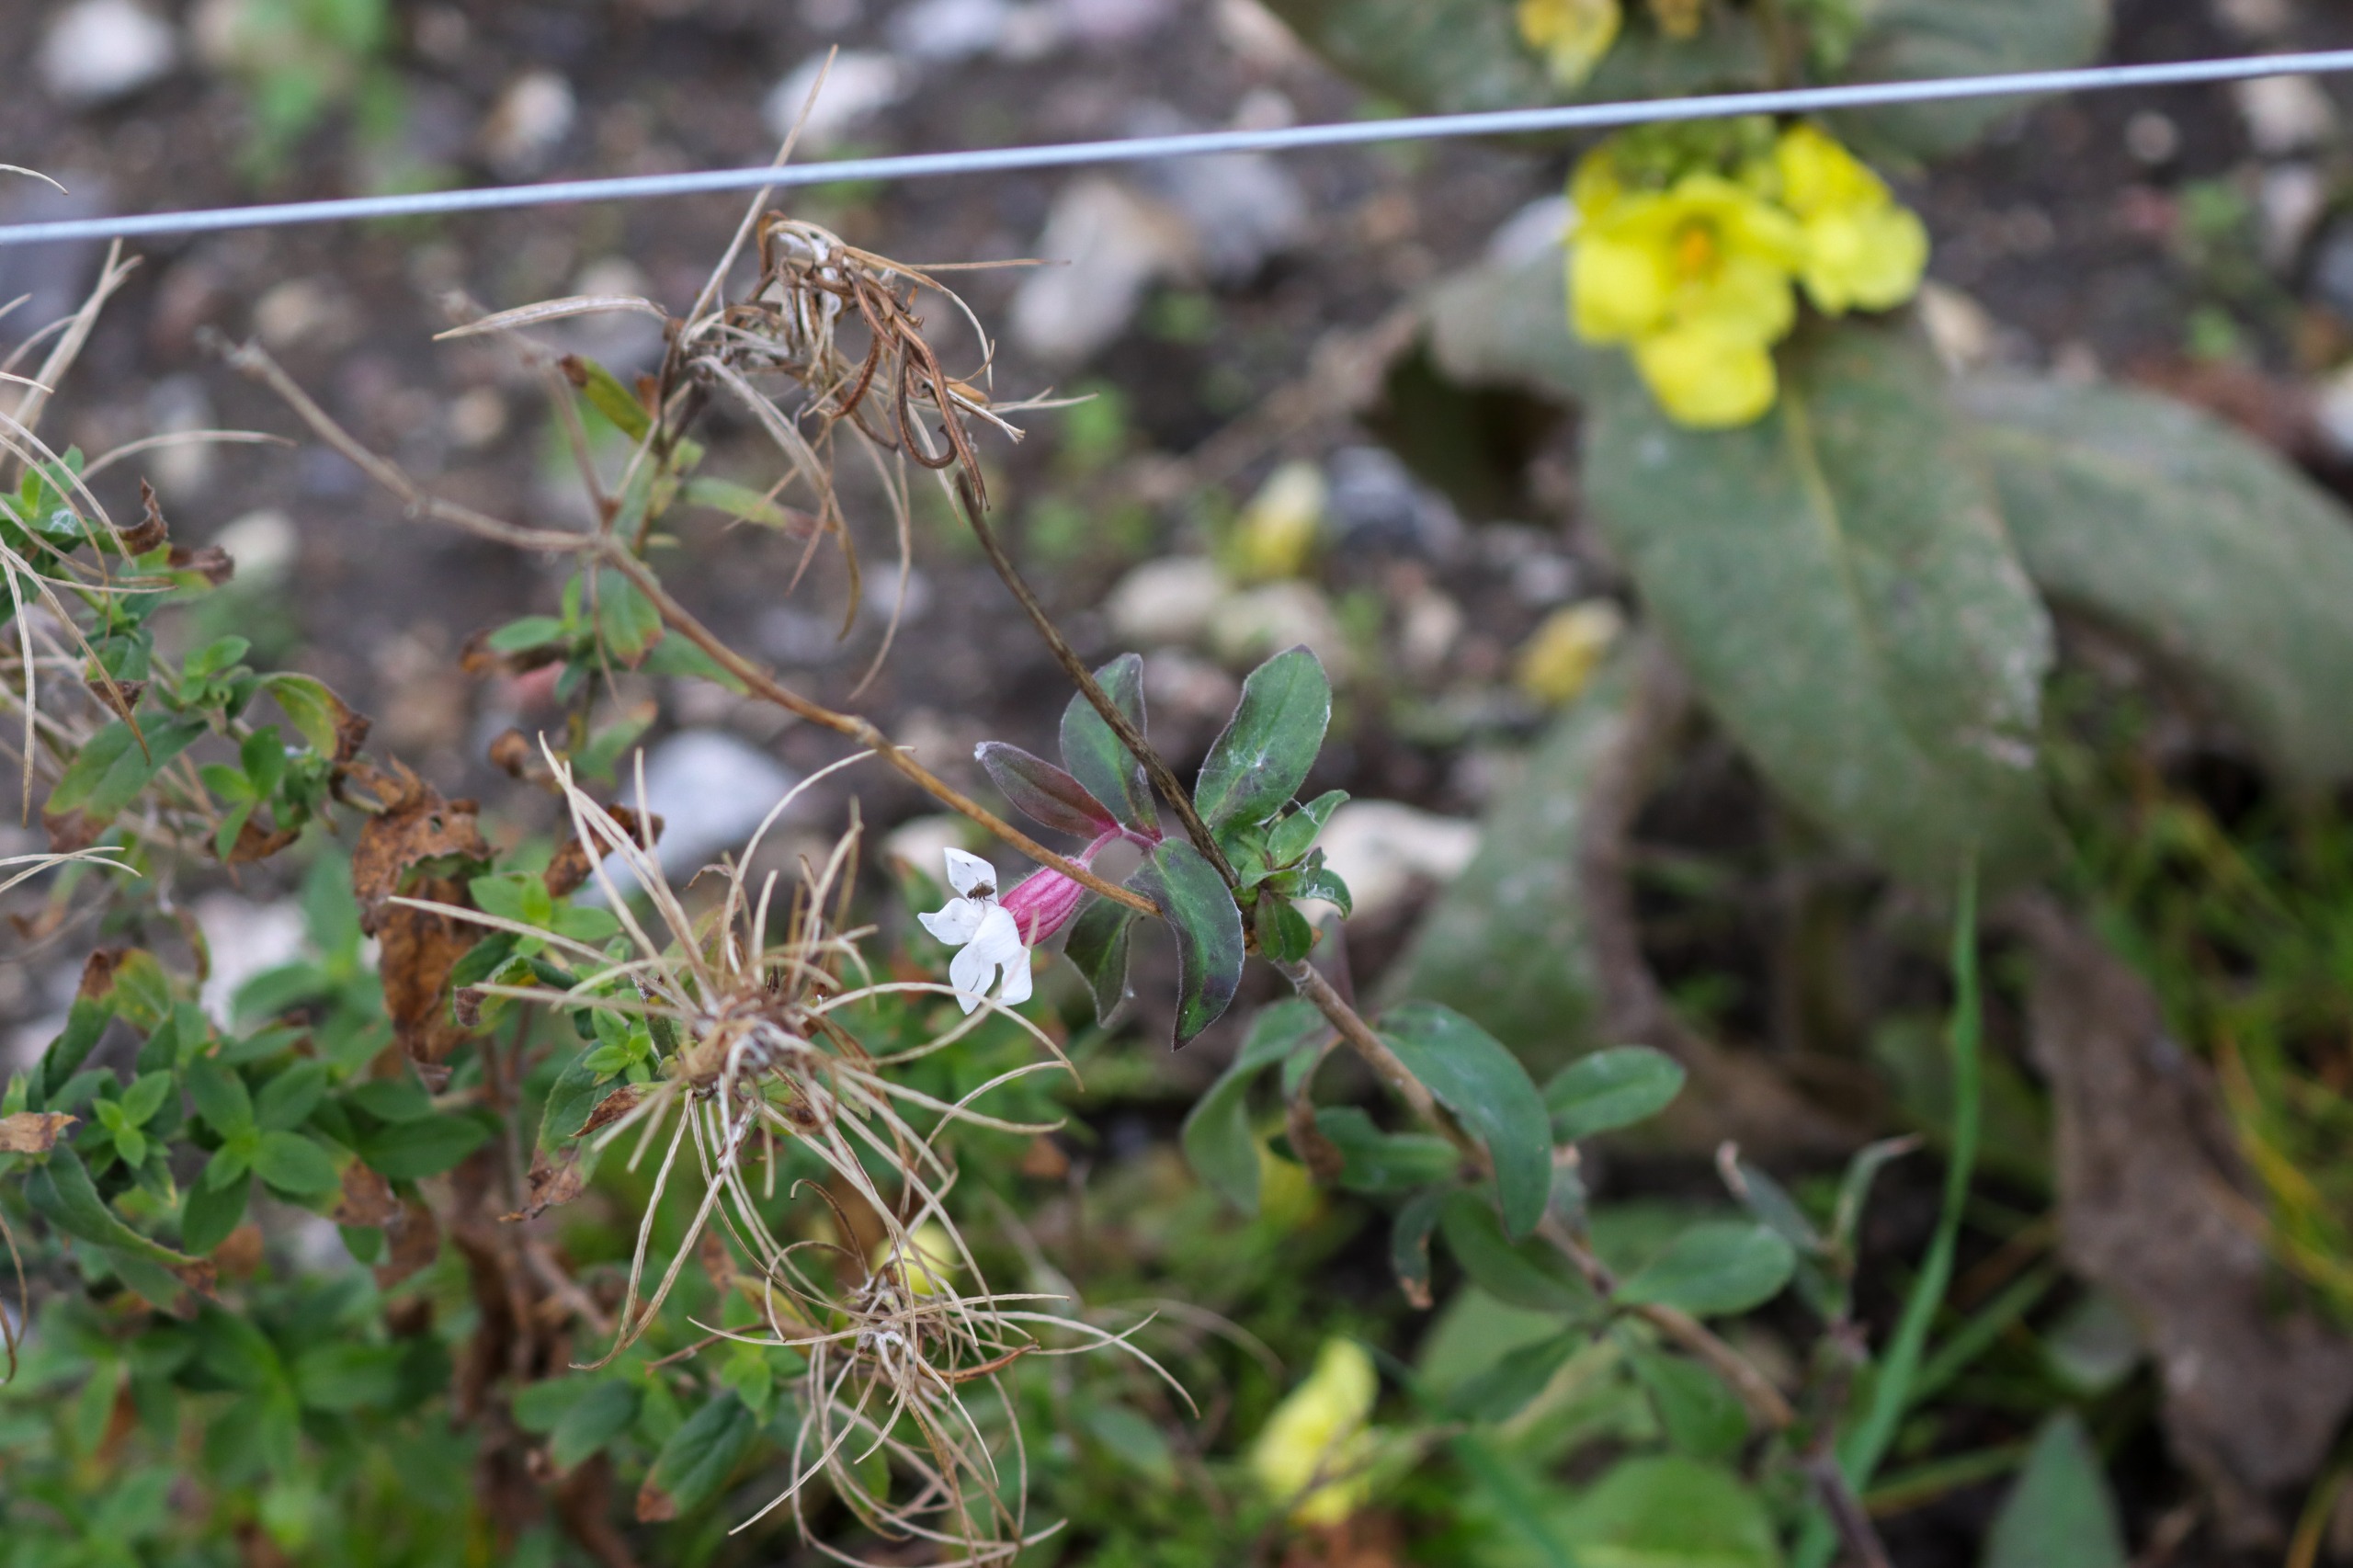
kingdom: Plantae
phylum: Tracheophyta
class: Magnoliopsida
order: Caryophyllales
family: Caryophyllaceae
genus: Silene
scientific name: Silene latifolia
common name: Aftenpragtstjerne
